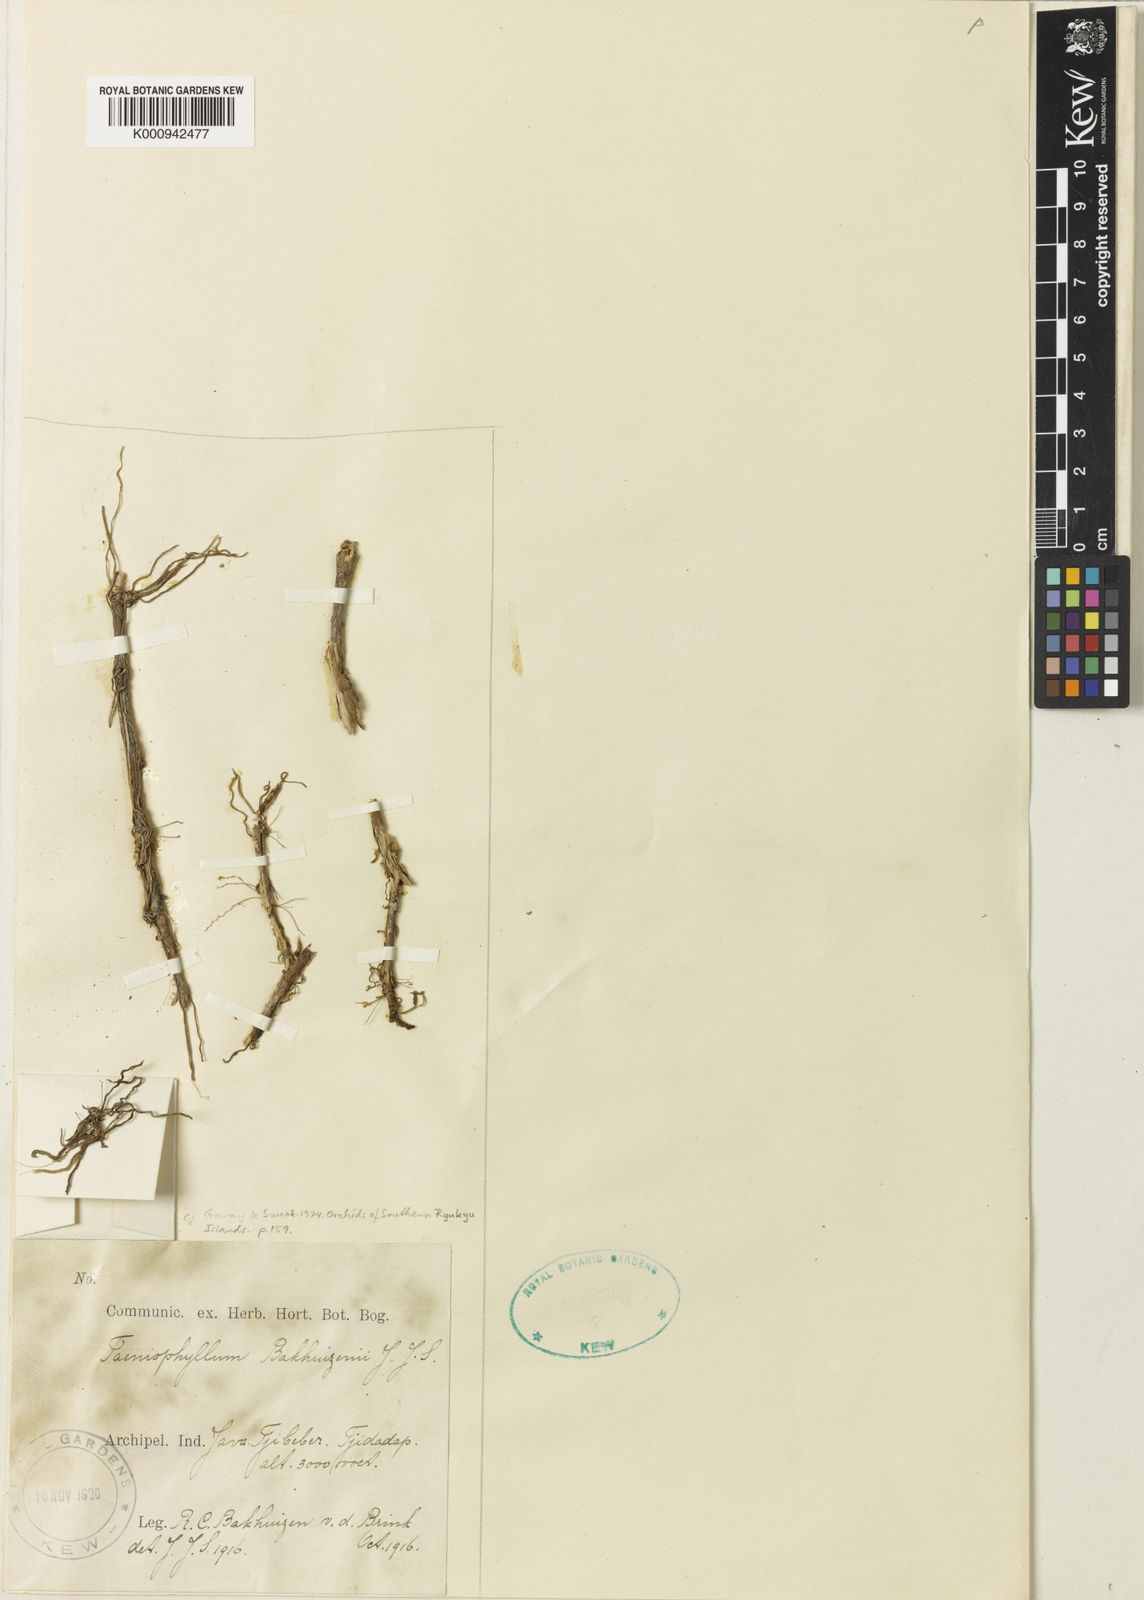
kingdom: Plantae
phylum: Tracheophyta
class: Liliopsida
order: Asparagales
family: Orchidaceae
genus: Taeniophyllum
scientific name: Taeniophyllum bakhuizenii
